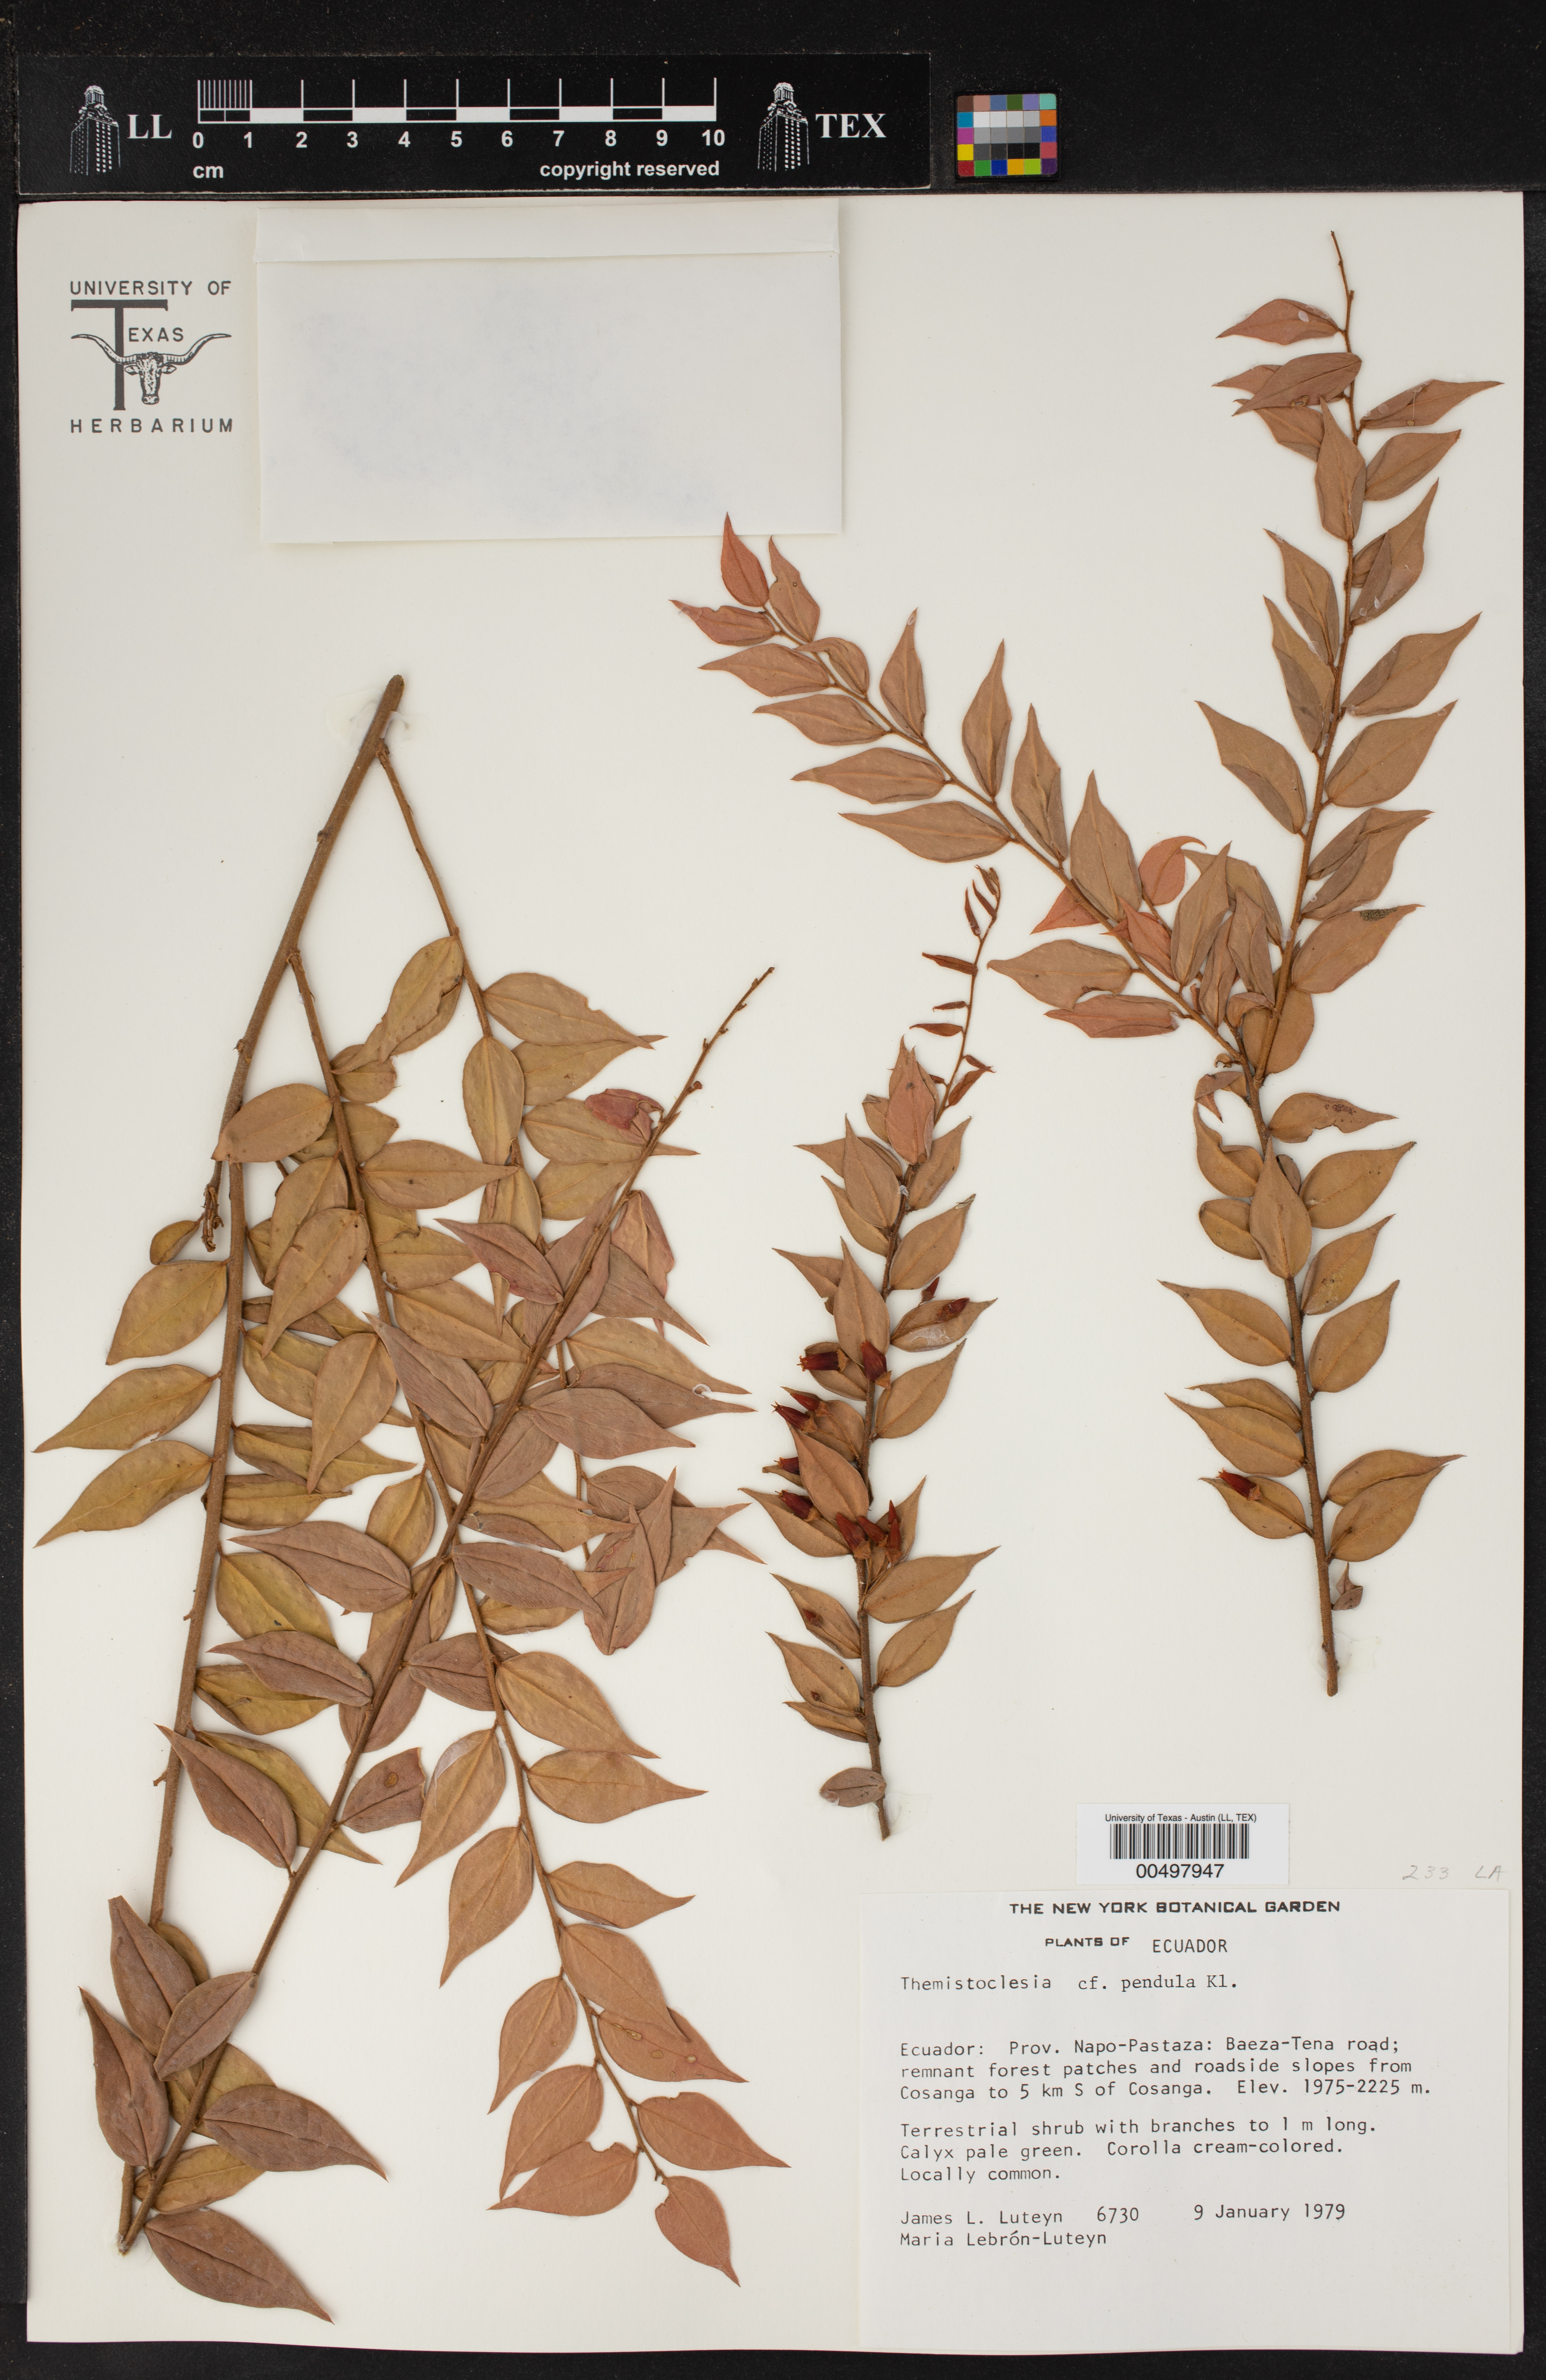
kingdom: Plantae
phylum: Tracheophyta
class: Magnoliopsida
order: Ericales
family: Ericaceae
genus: Themistoclesia
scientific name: Themistoclesia dependens
